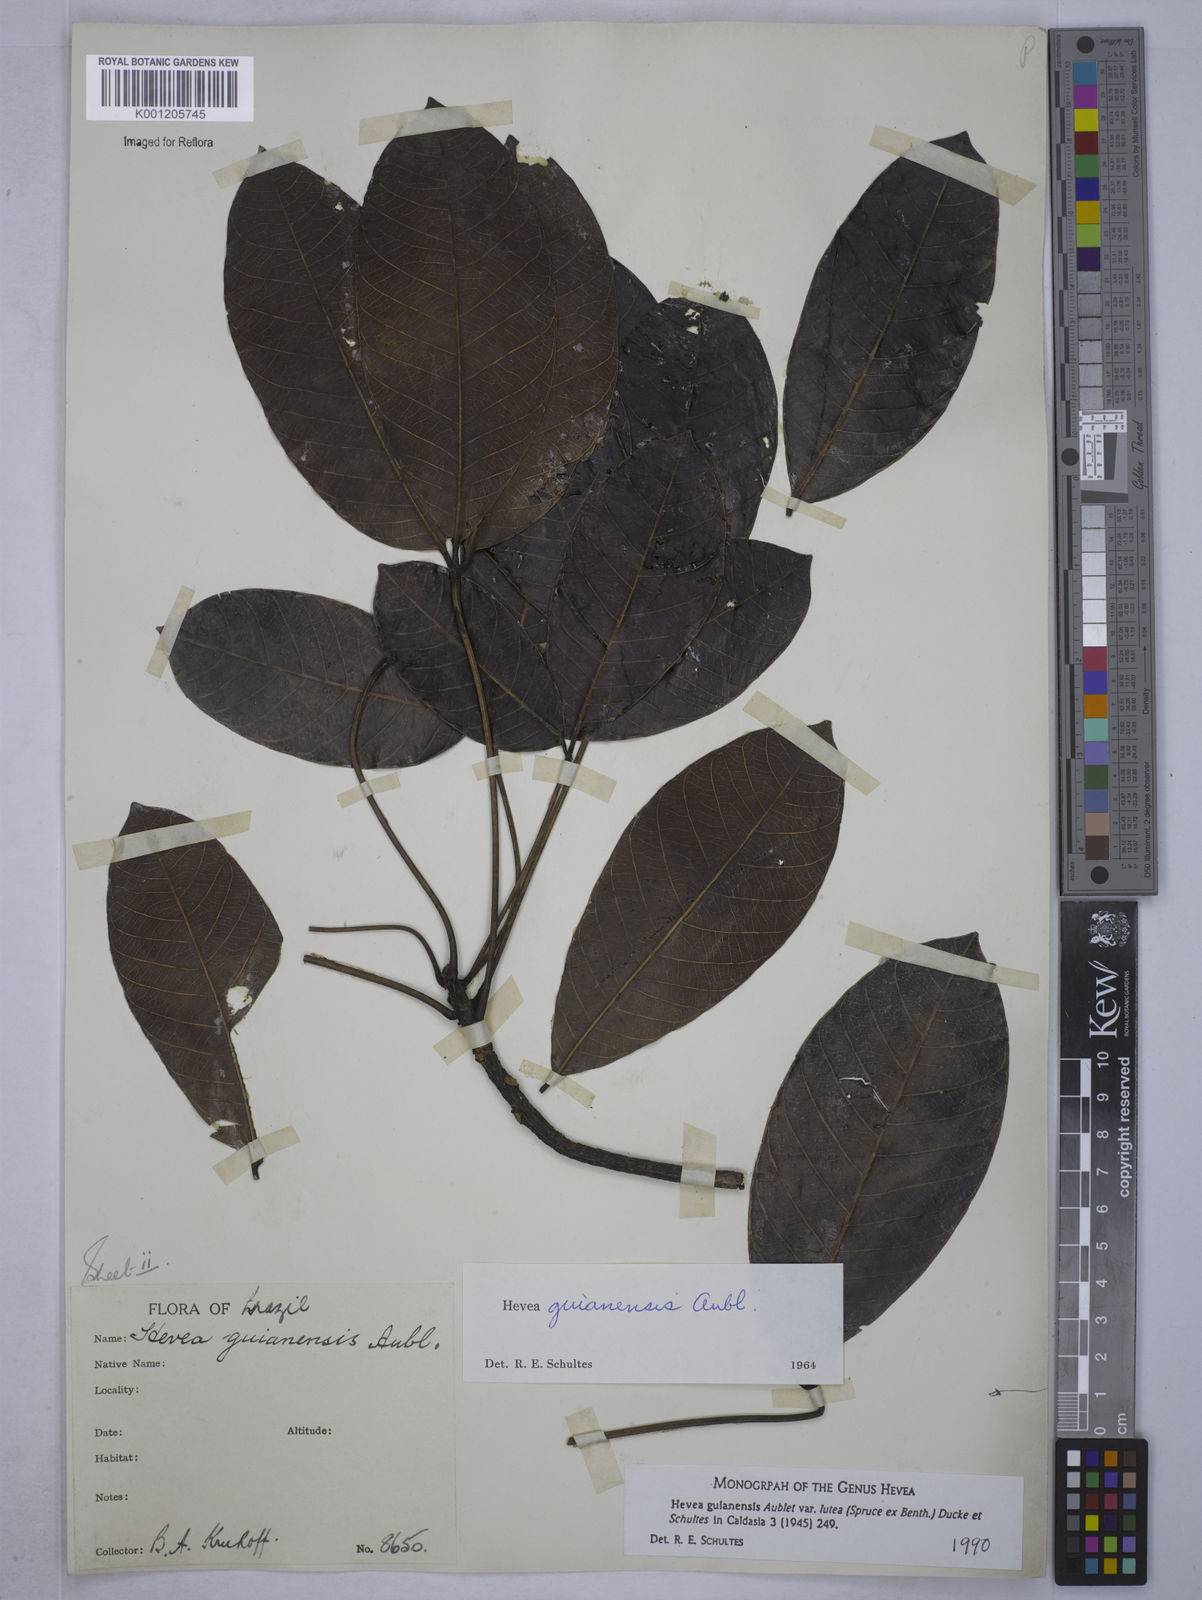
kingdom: Plantae
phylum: Tracheophyta
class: Magnoliopsida
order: Malpighiales
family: Euphorbiaceae
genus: Hevea
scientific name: Hevea guianensis
